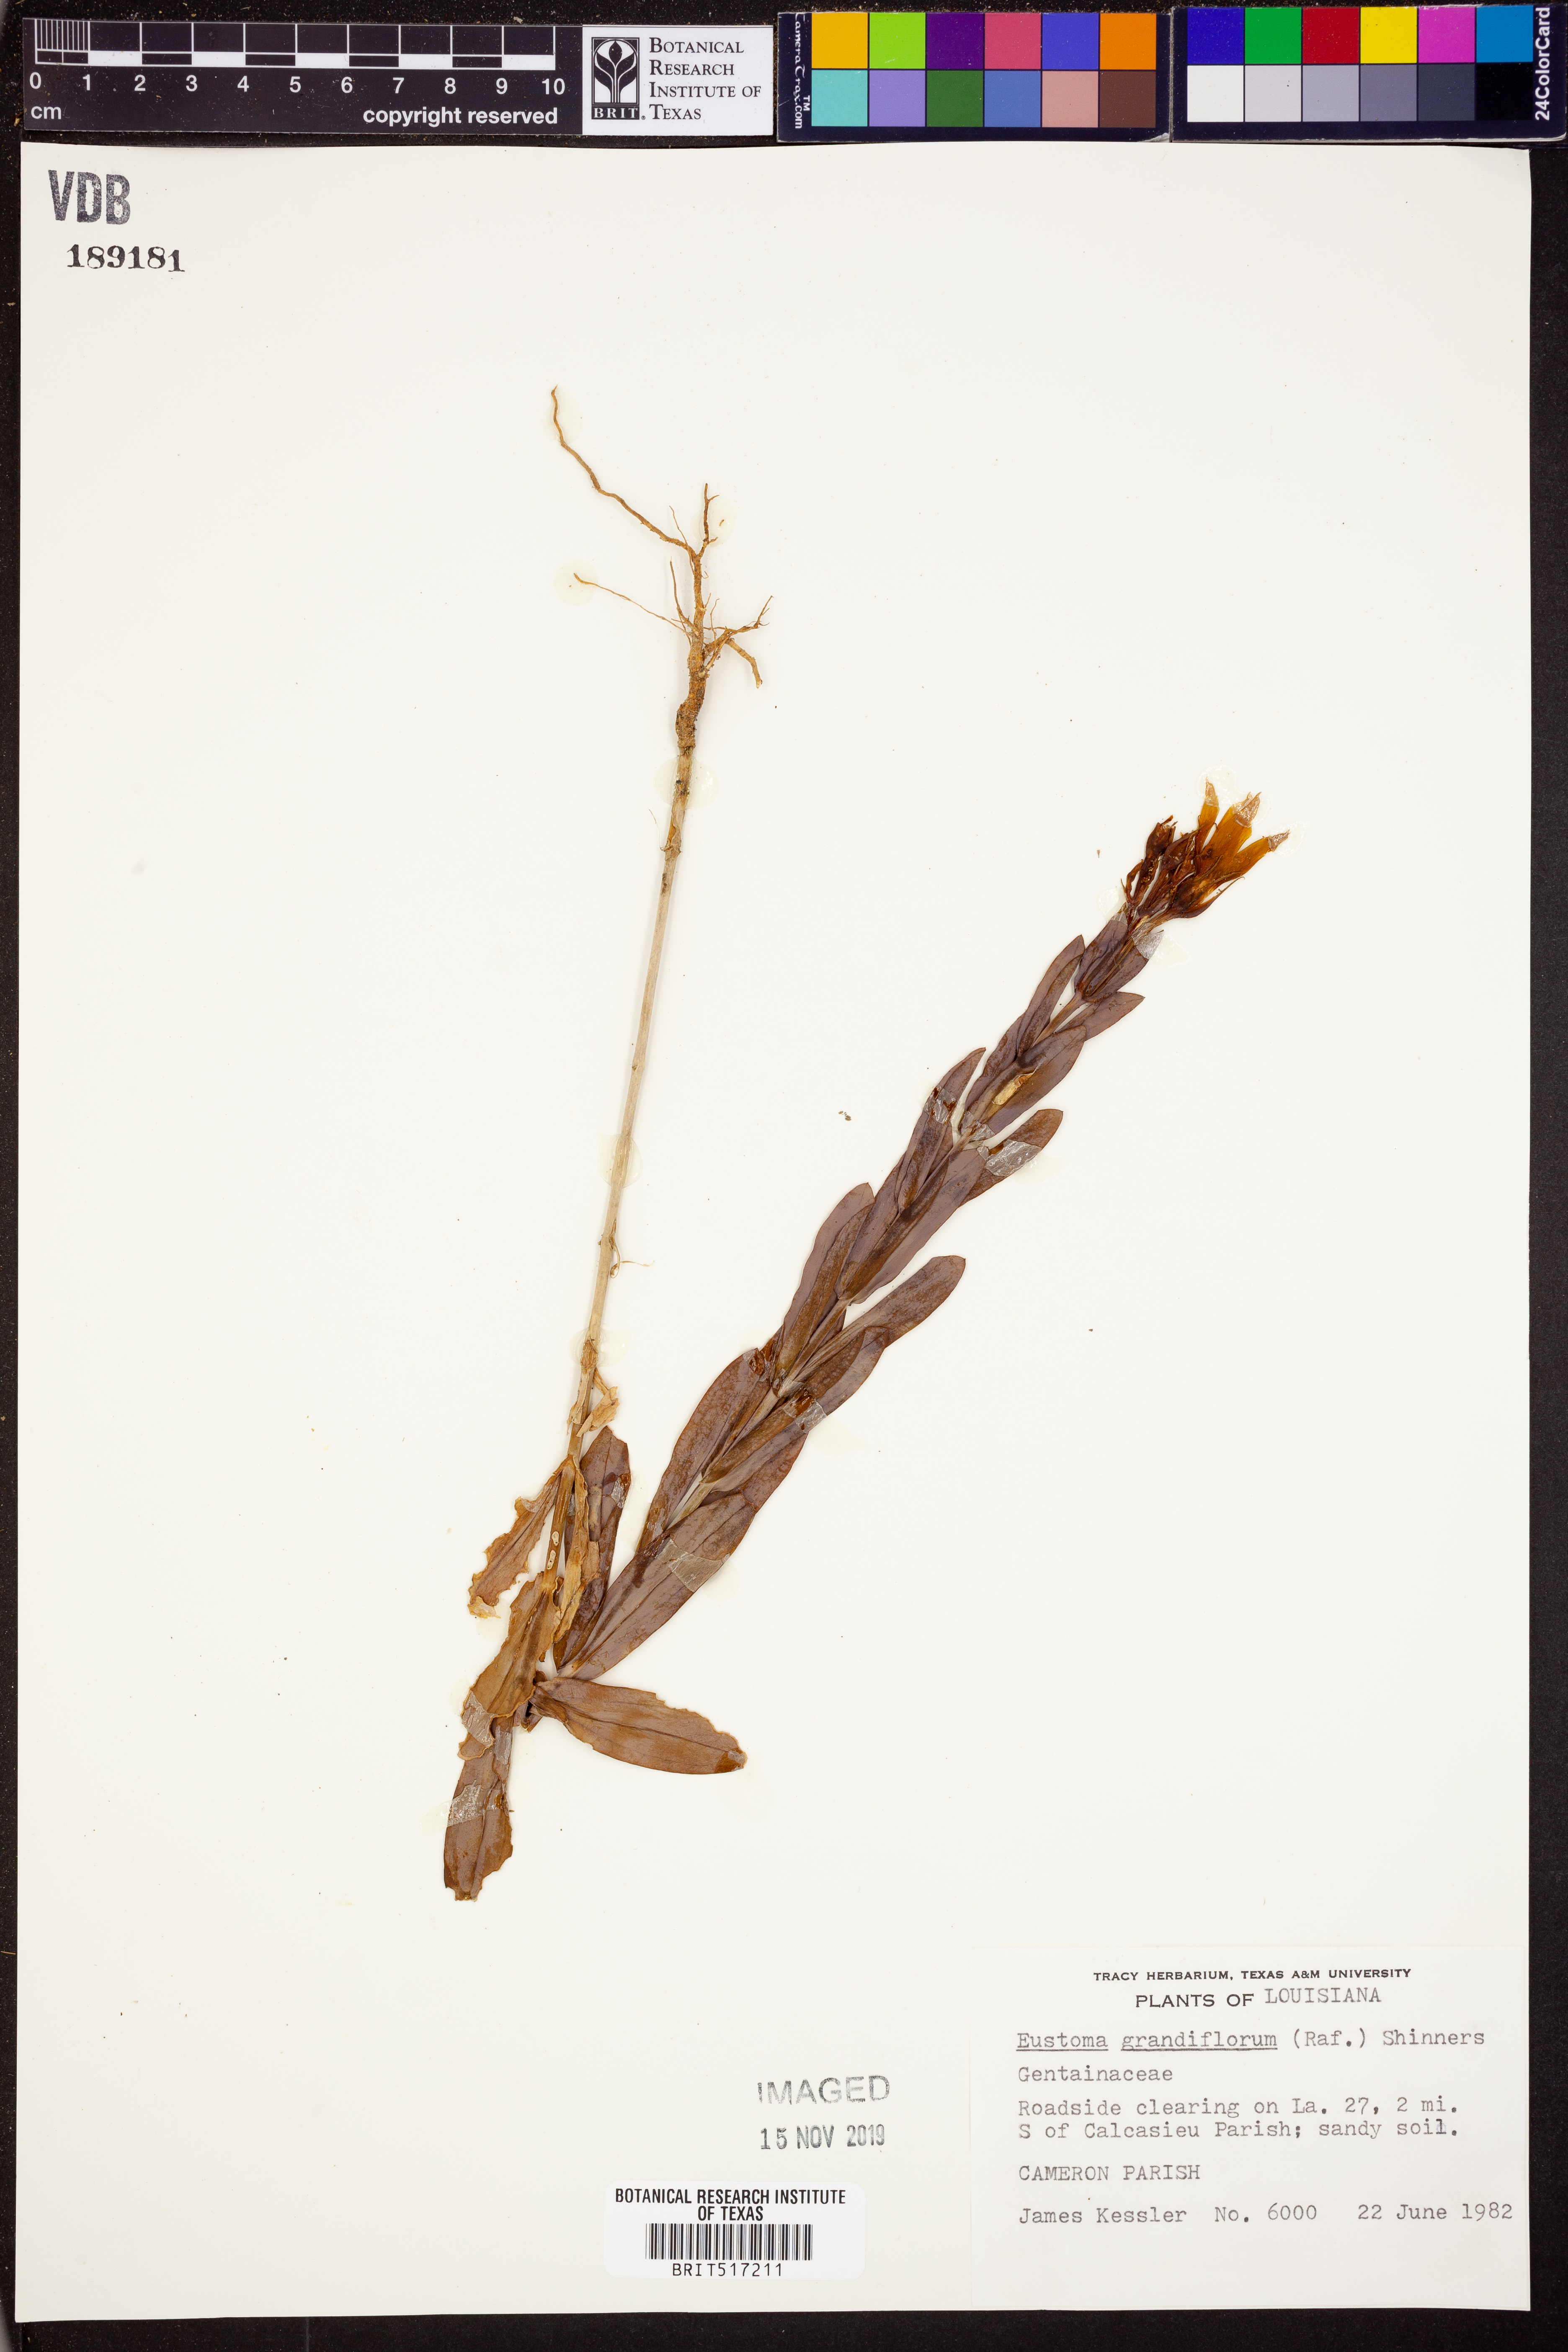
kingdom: Plantae
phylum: Tracheophyta
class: Magnoliopsida
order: Gentianales
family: Gentianaceae
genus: Eustoma
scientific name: Eustoma russellianum
